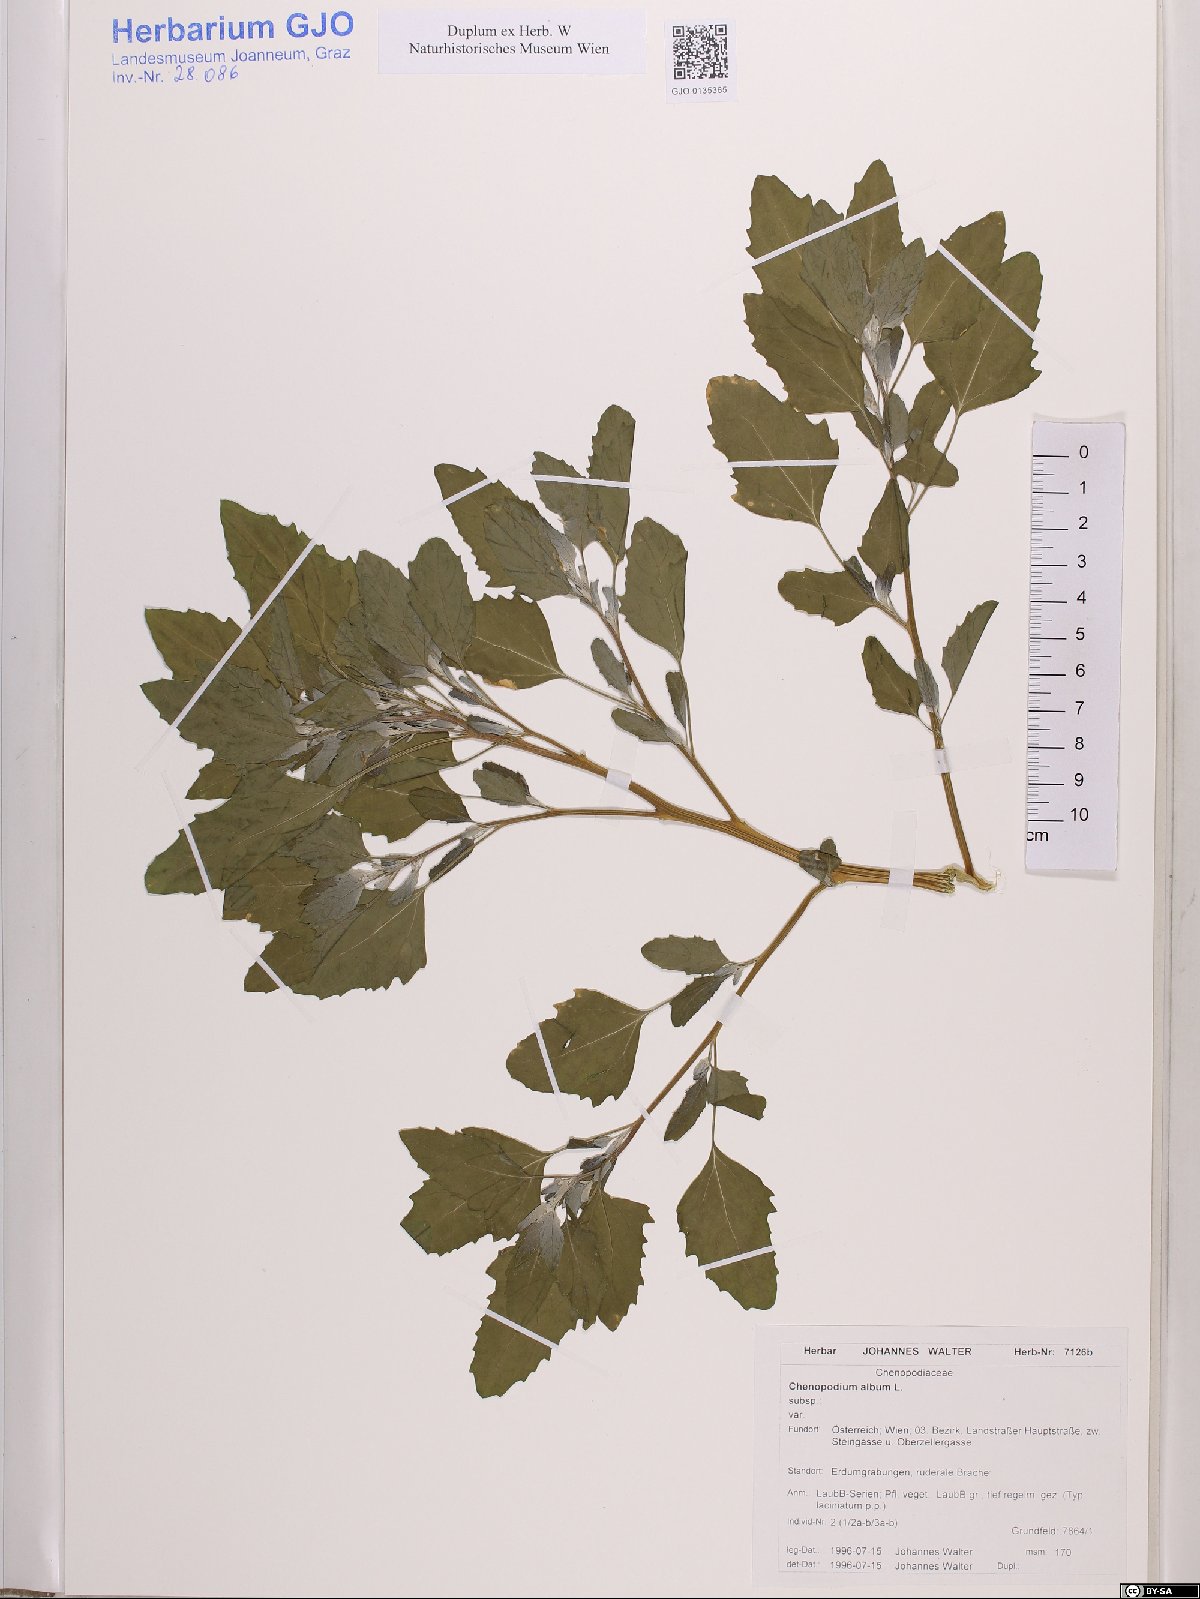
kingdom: Plantae
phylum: Tracheophyta
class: Magnoliopsida
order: Caryophyllales
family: Amaranthaceae
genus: Chenopodium
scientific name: Chenopodium album
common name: Fat-hen
